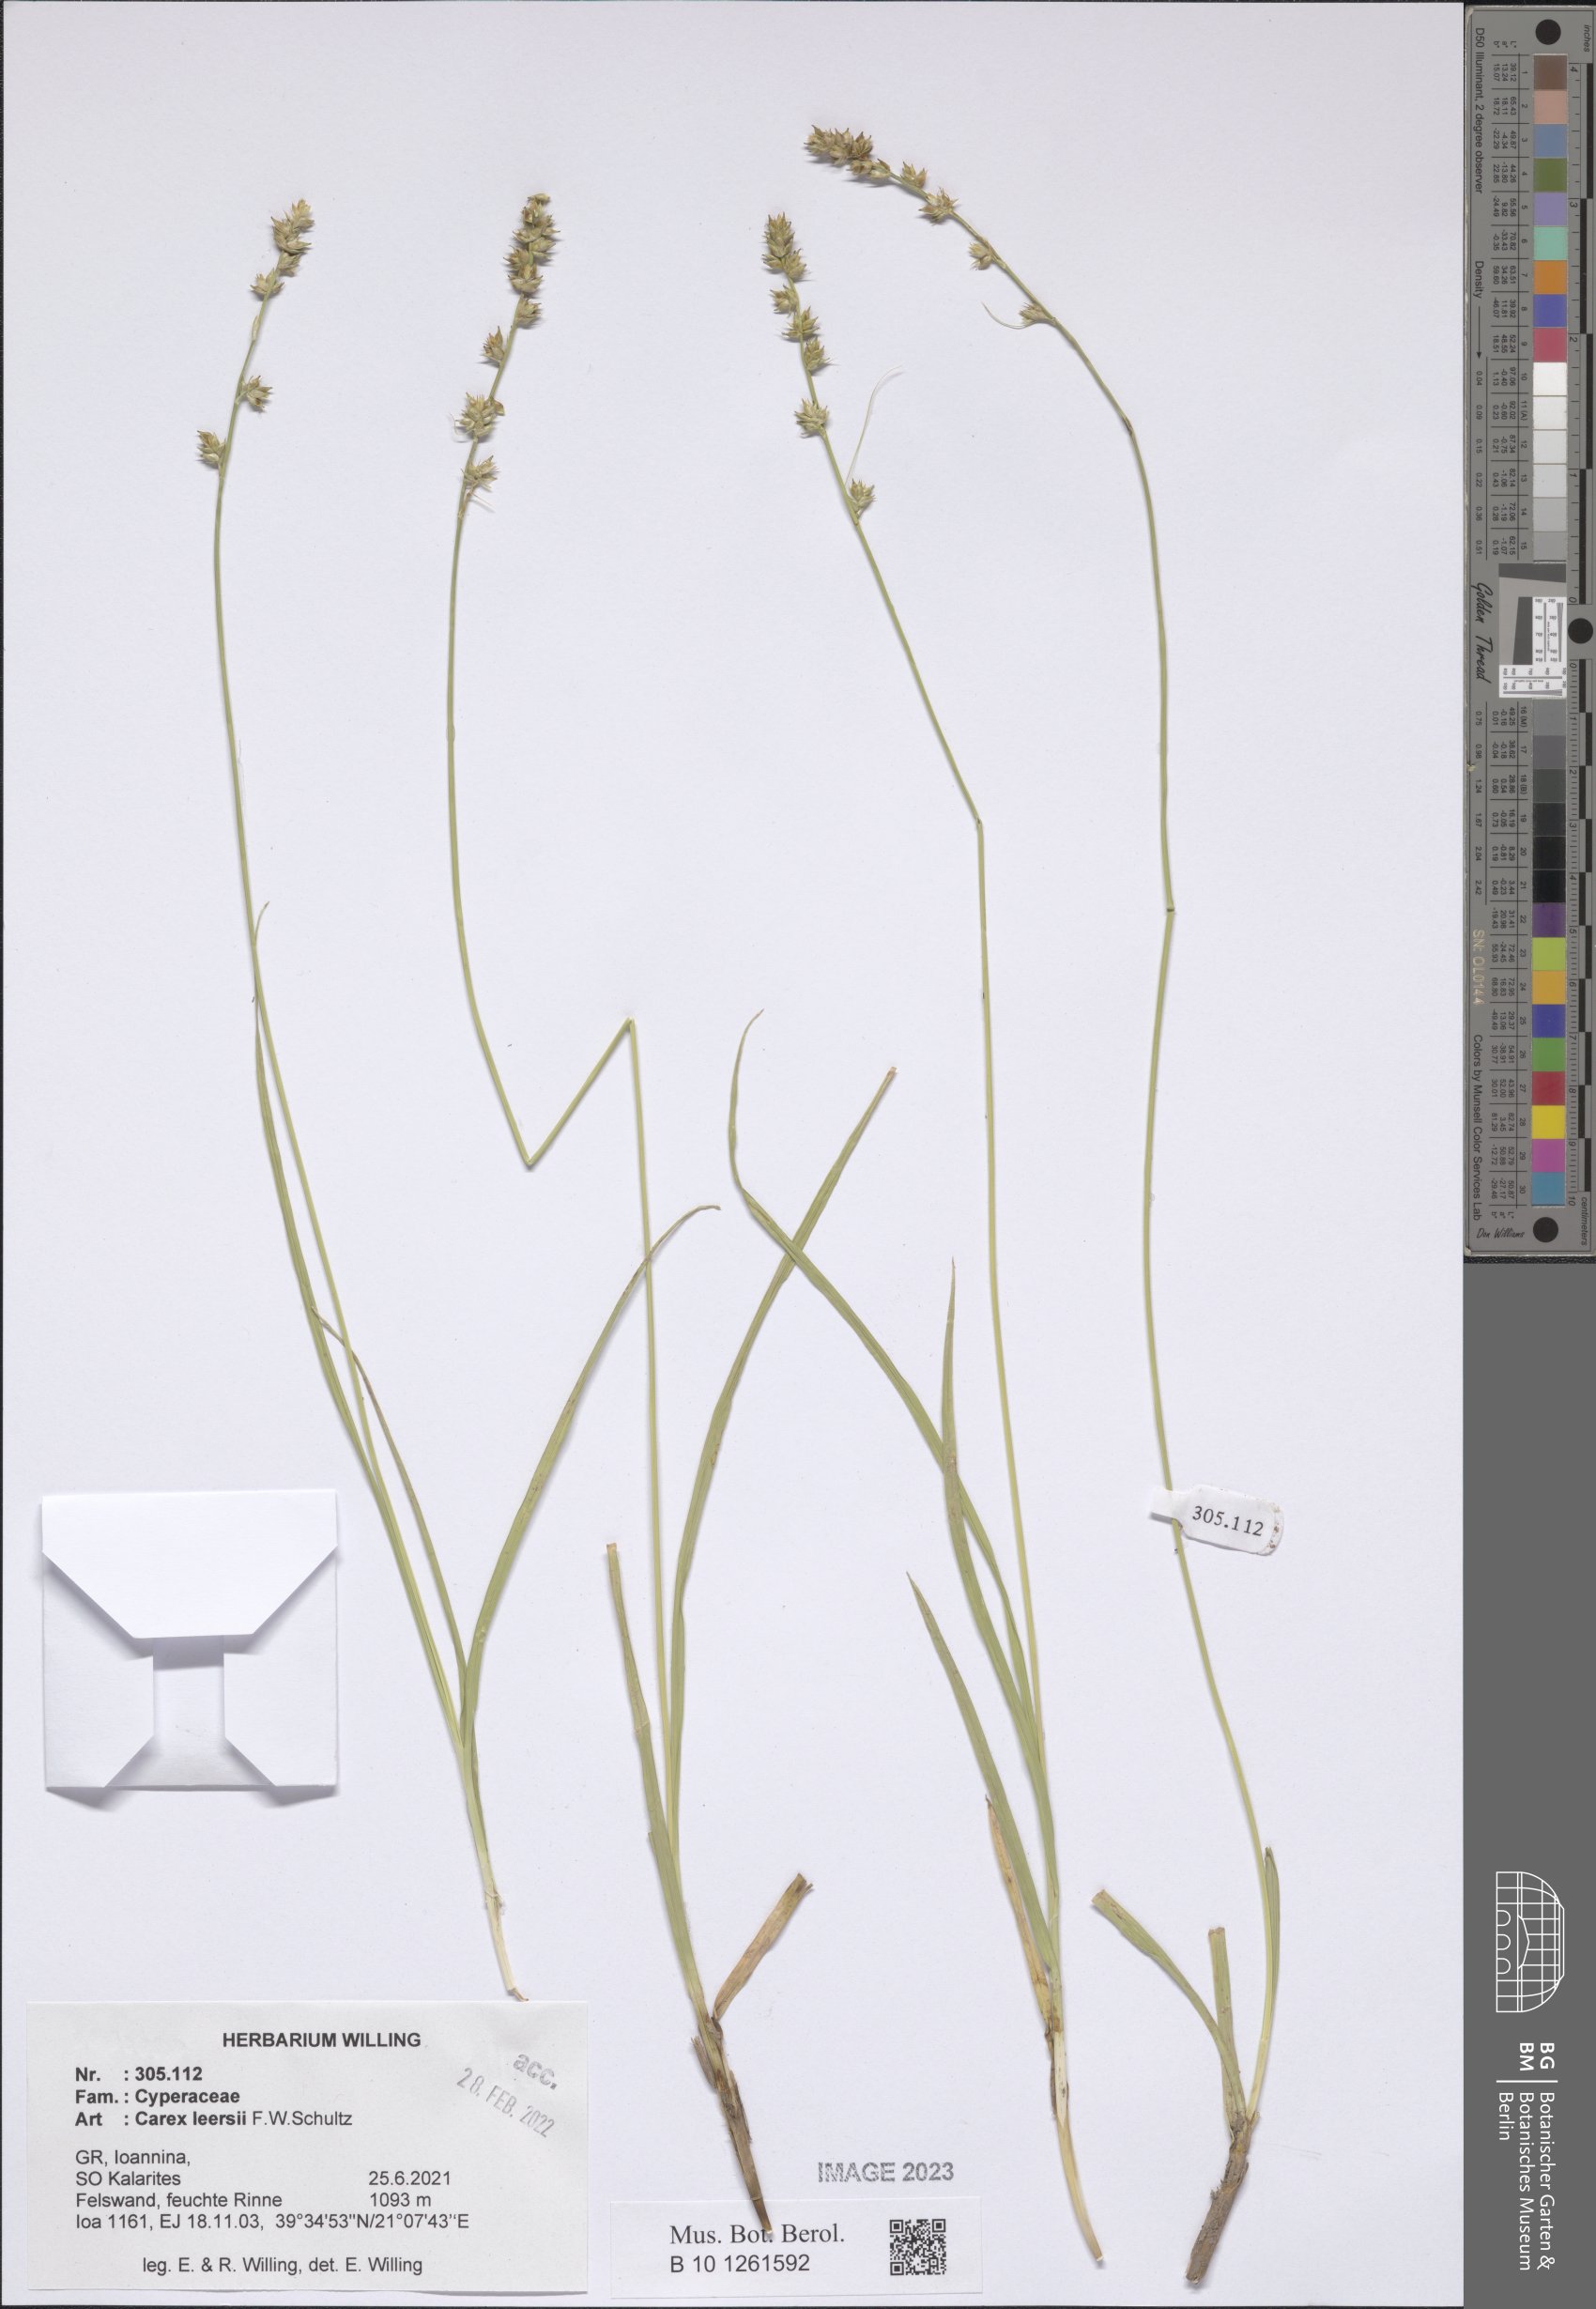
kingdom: Plantae
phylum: Tracheophyta
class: Liliopsida
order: Poales
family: Cyperaceae
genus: Carex
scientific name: Carex leersii
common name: Leers' sedge
